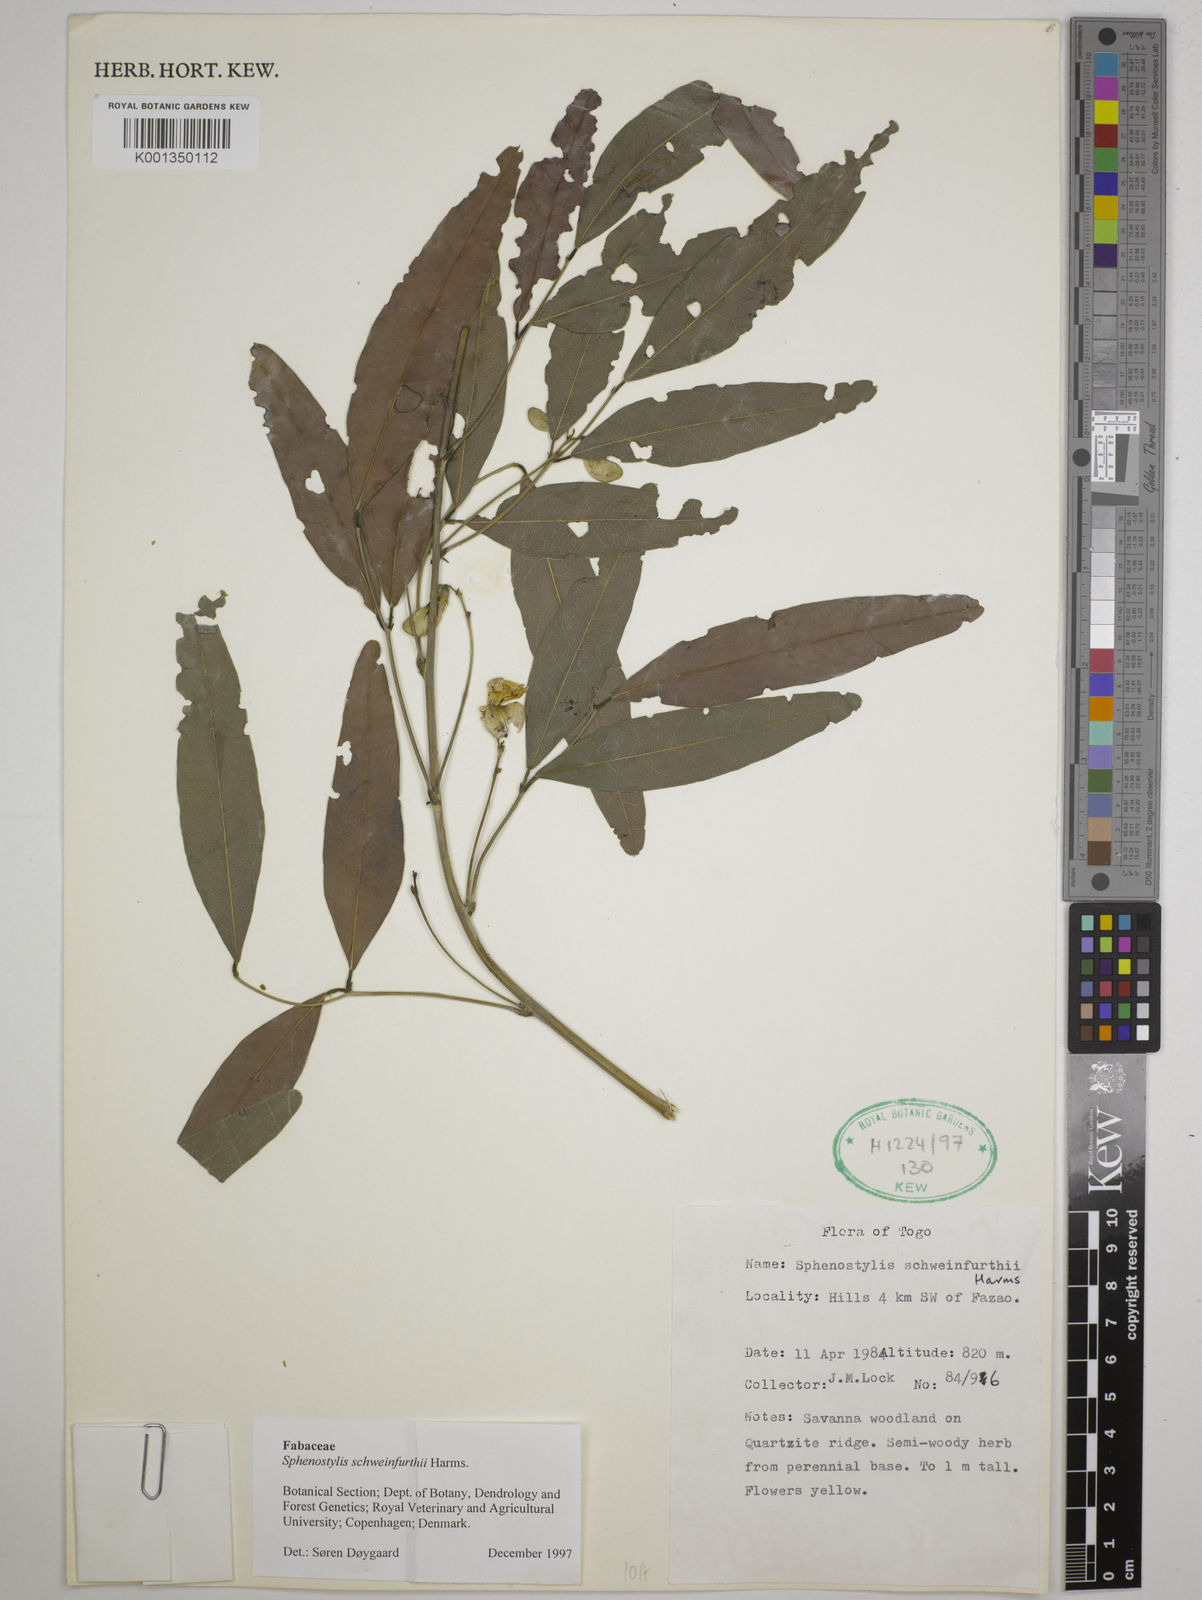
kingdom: Plantae
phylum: Tracheophyta
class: Magnoliopsida
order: Fabales
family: Fabaceae
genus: Sphenostylis
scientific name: Sphenostylis schweinfurthii
